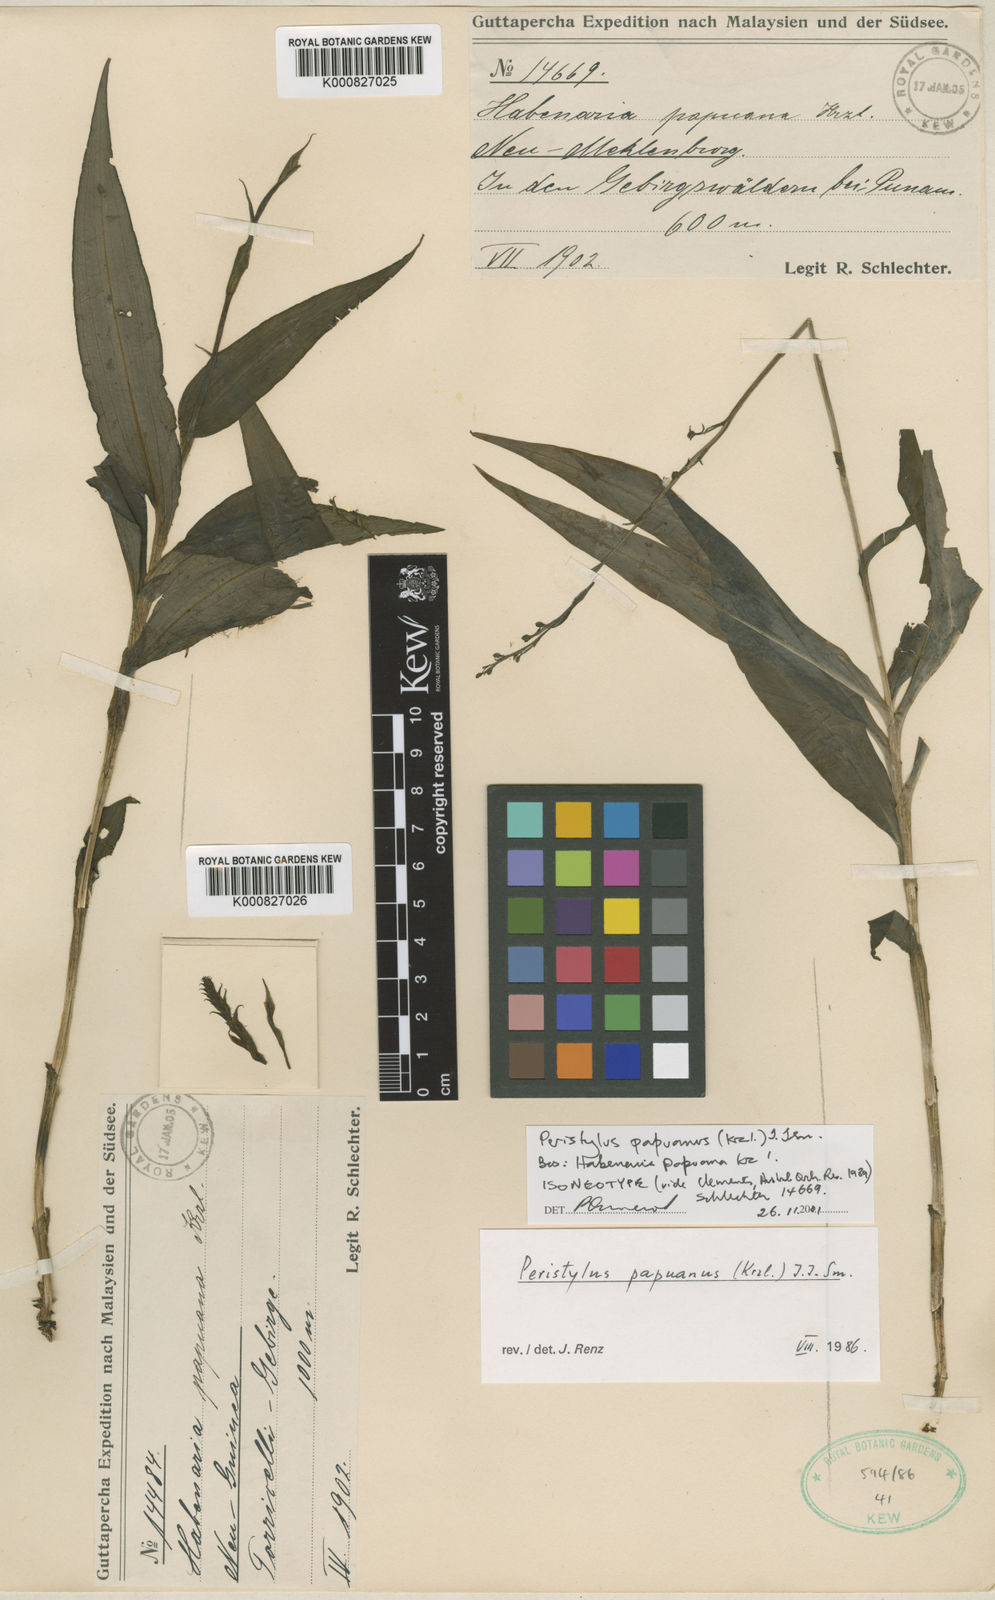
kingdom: Plantae
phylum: Tracheophyta
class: Liliopsida
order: Asparagales
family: Orchidaceae
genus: Peristylus
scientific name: Peristylus tradescantiifolius
